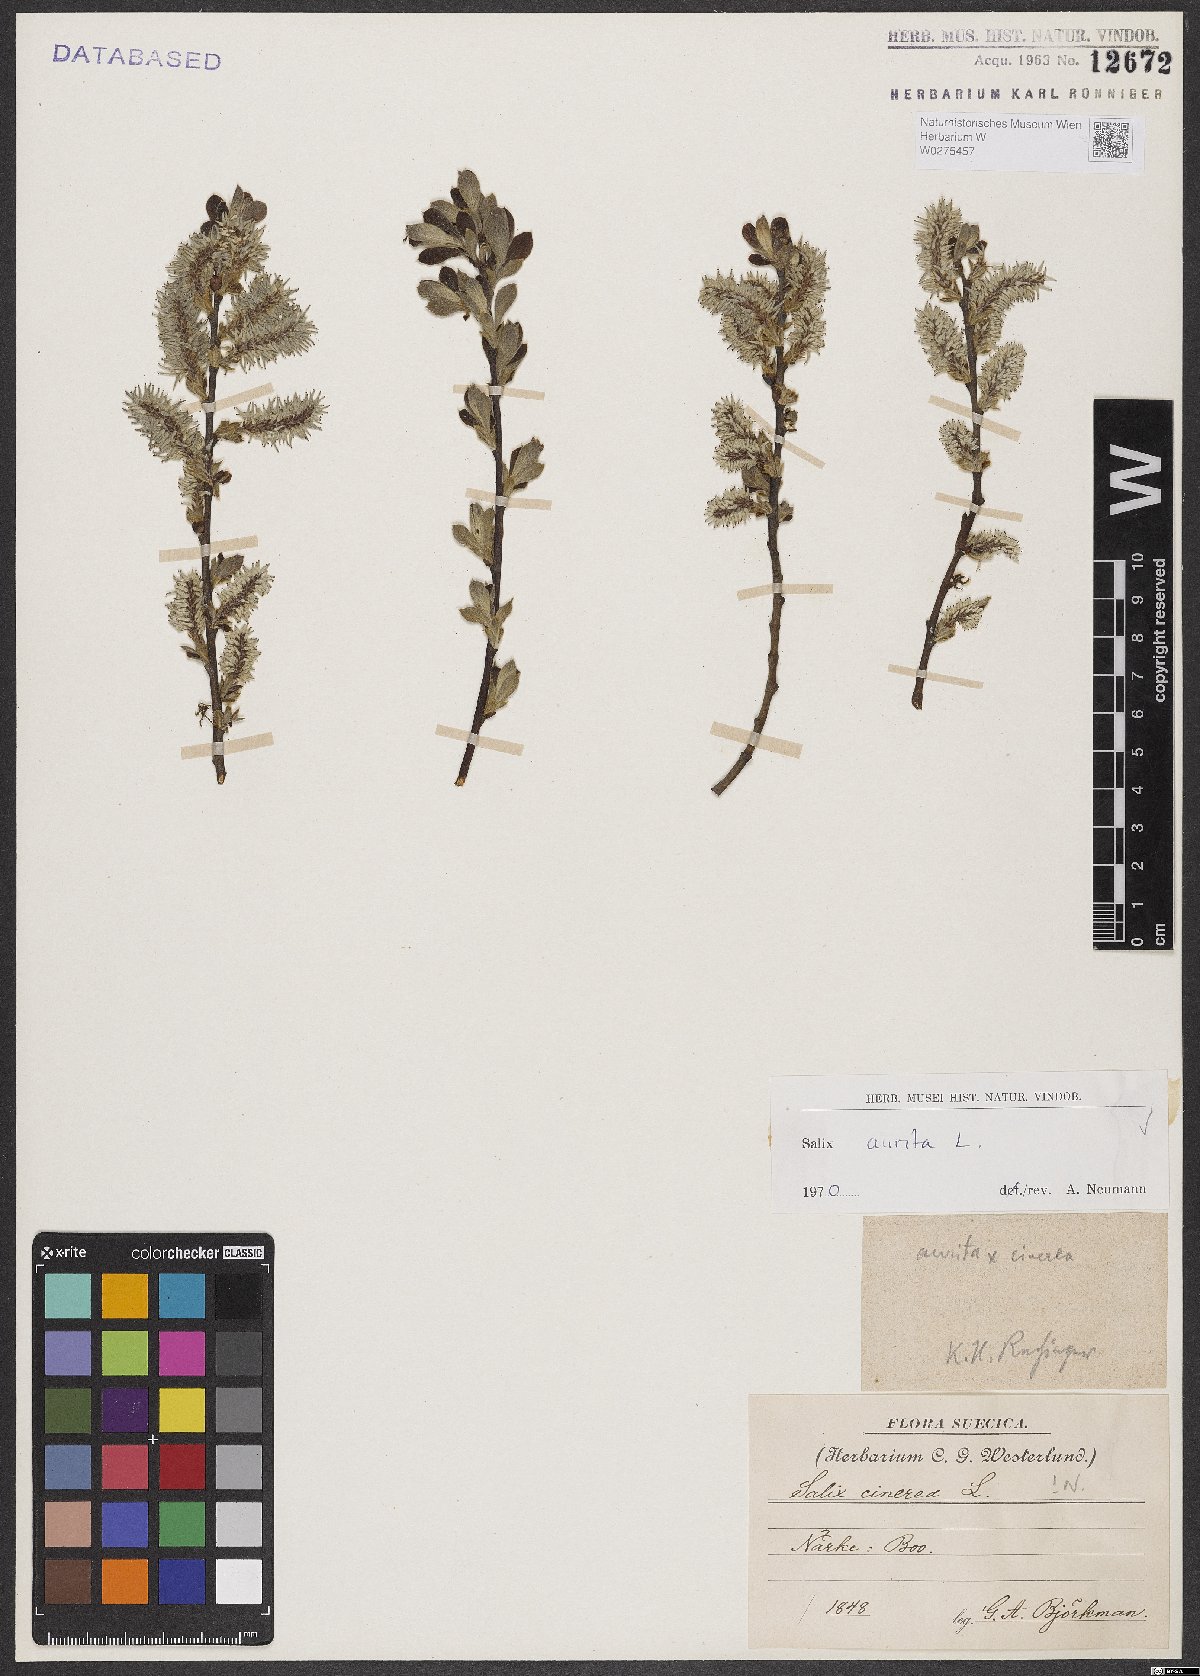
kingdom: Plantae
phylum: Tracheophyta
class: Magnoliopsida
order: Malpighiales
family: Salicaceae
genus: Salix
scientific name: Salix aurita
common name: Eared willow
